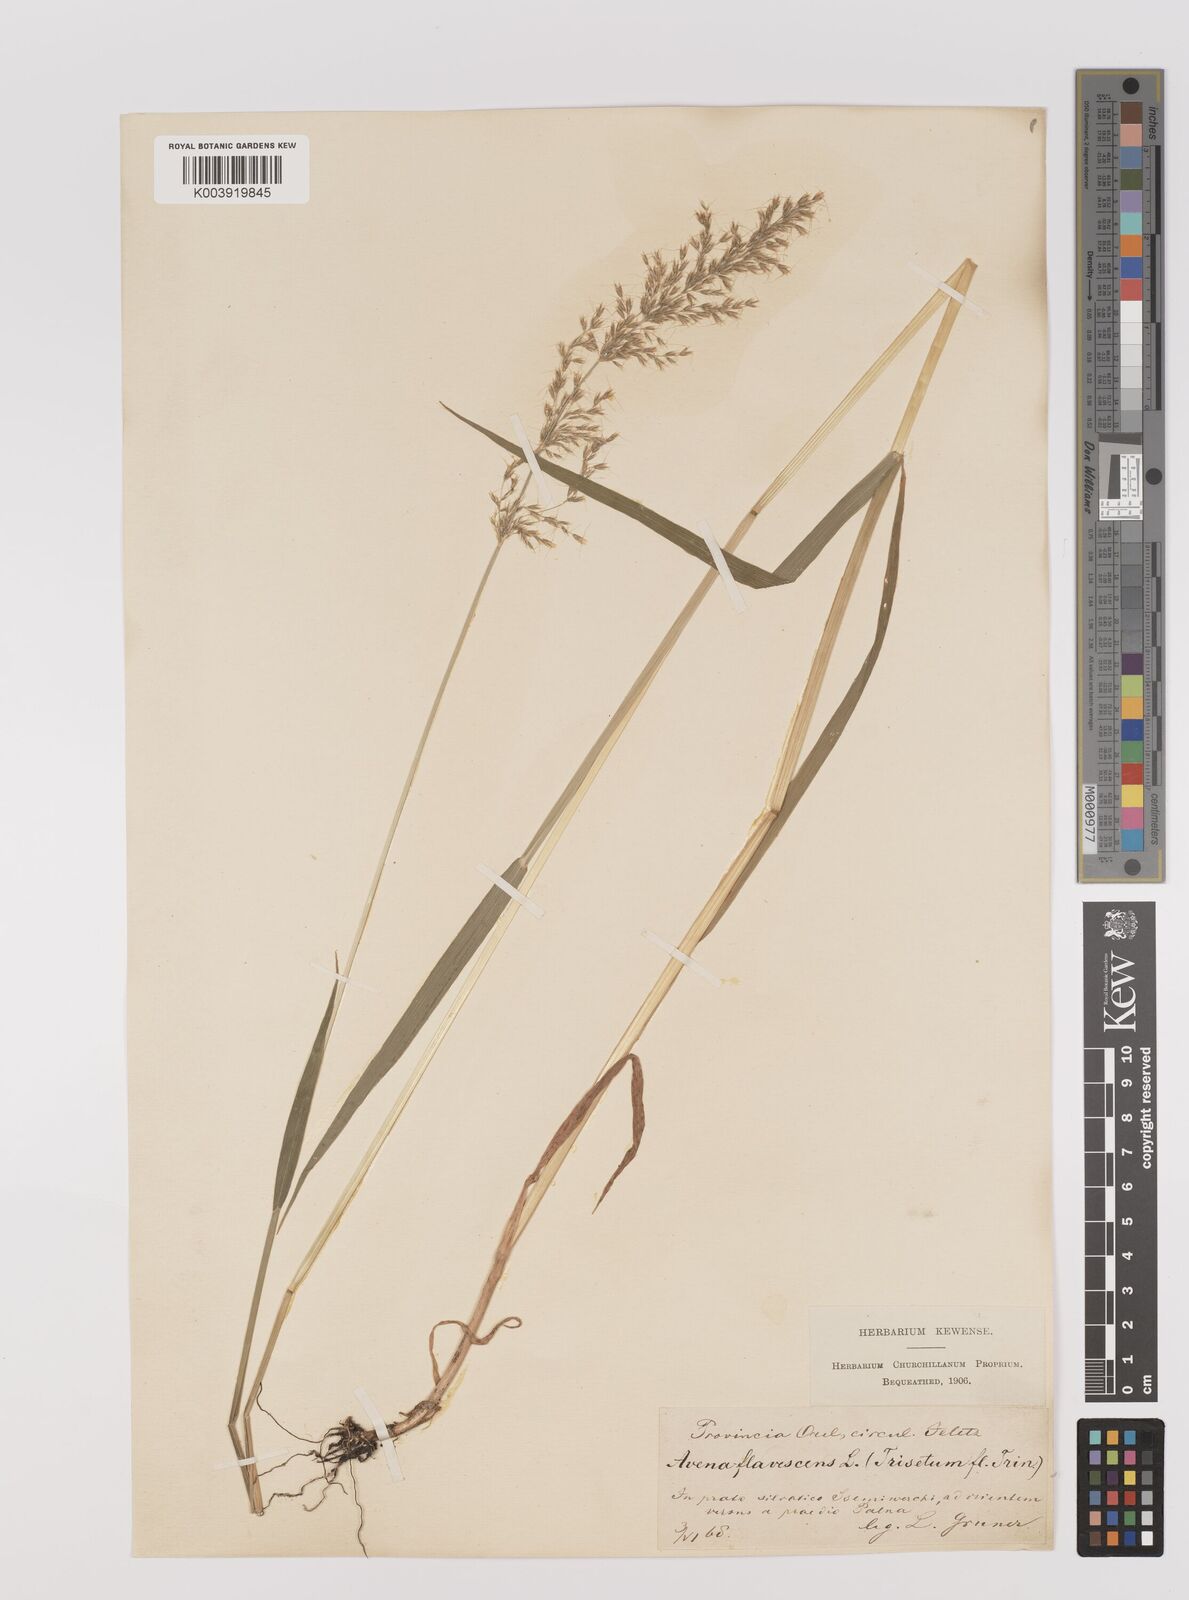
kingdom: Plantae
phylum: Tracheophyta
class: Liliopsida
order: Poales
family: Poaceae
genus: Trisetum
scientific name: Trisetum flavescens
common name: Yellow oat-grass
